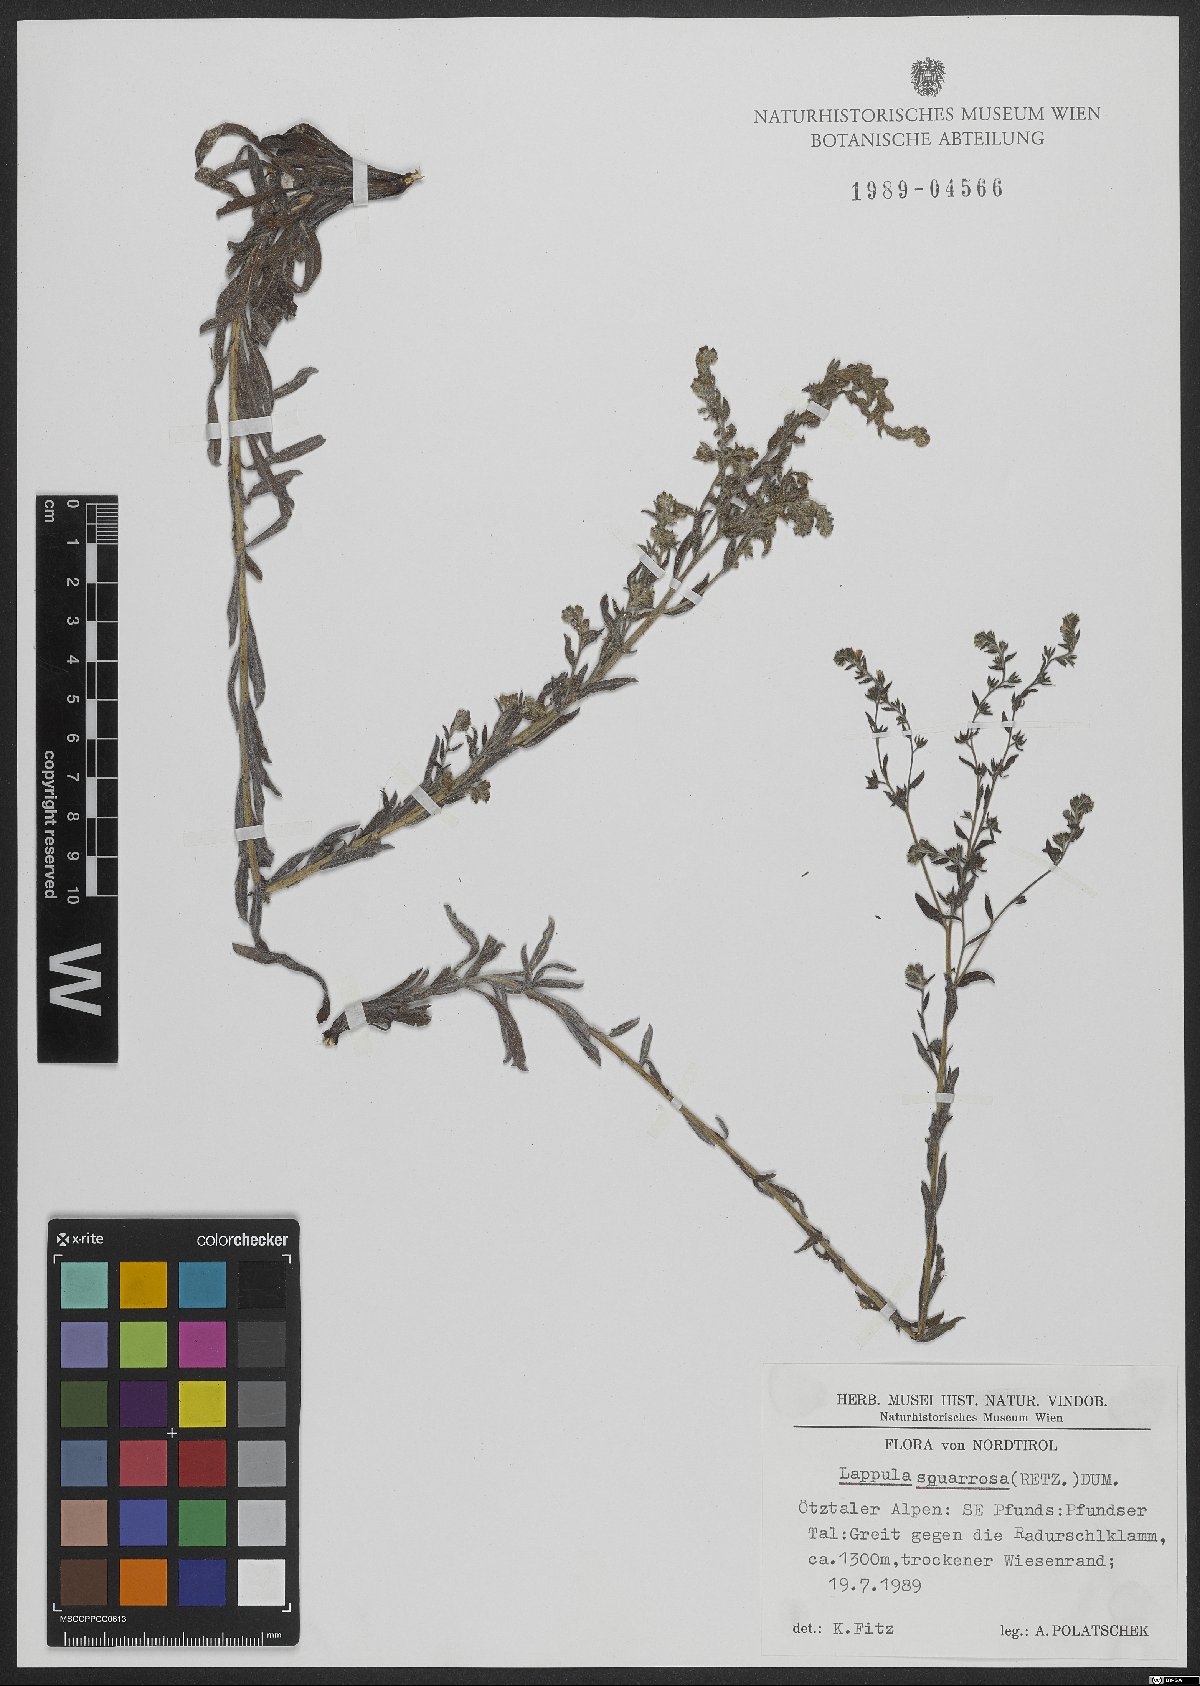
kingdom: Plantae
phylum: Tracheophyta
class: Magnoliopsida
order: Boraginales
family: Boraginaceae
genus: Lappula
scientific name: Lappula squarrosa
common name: European stickseed
